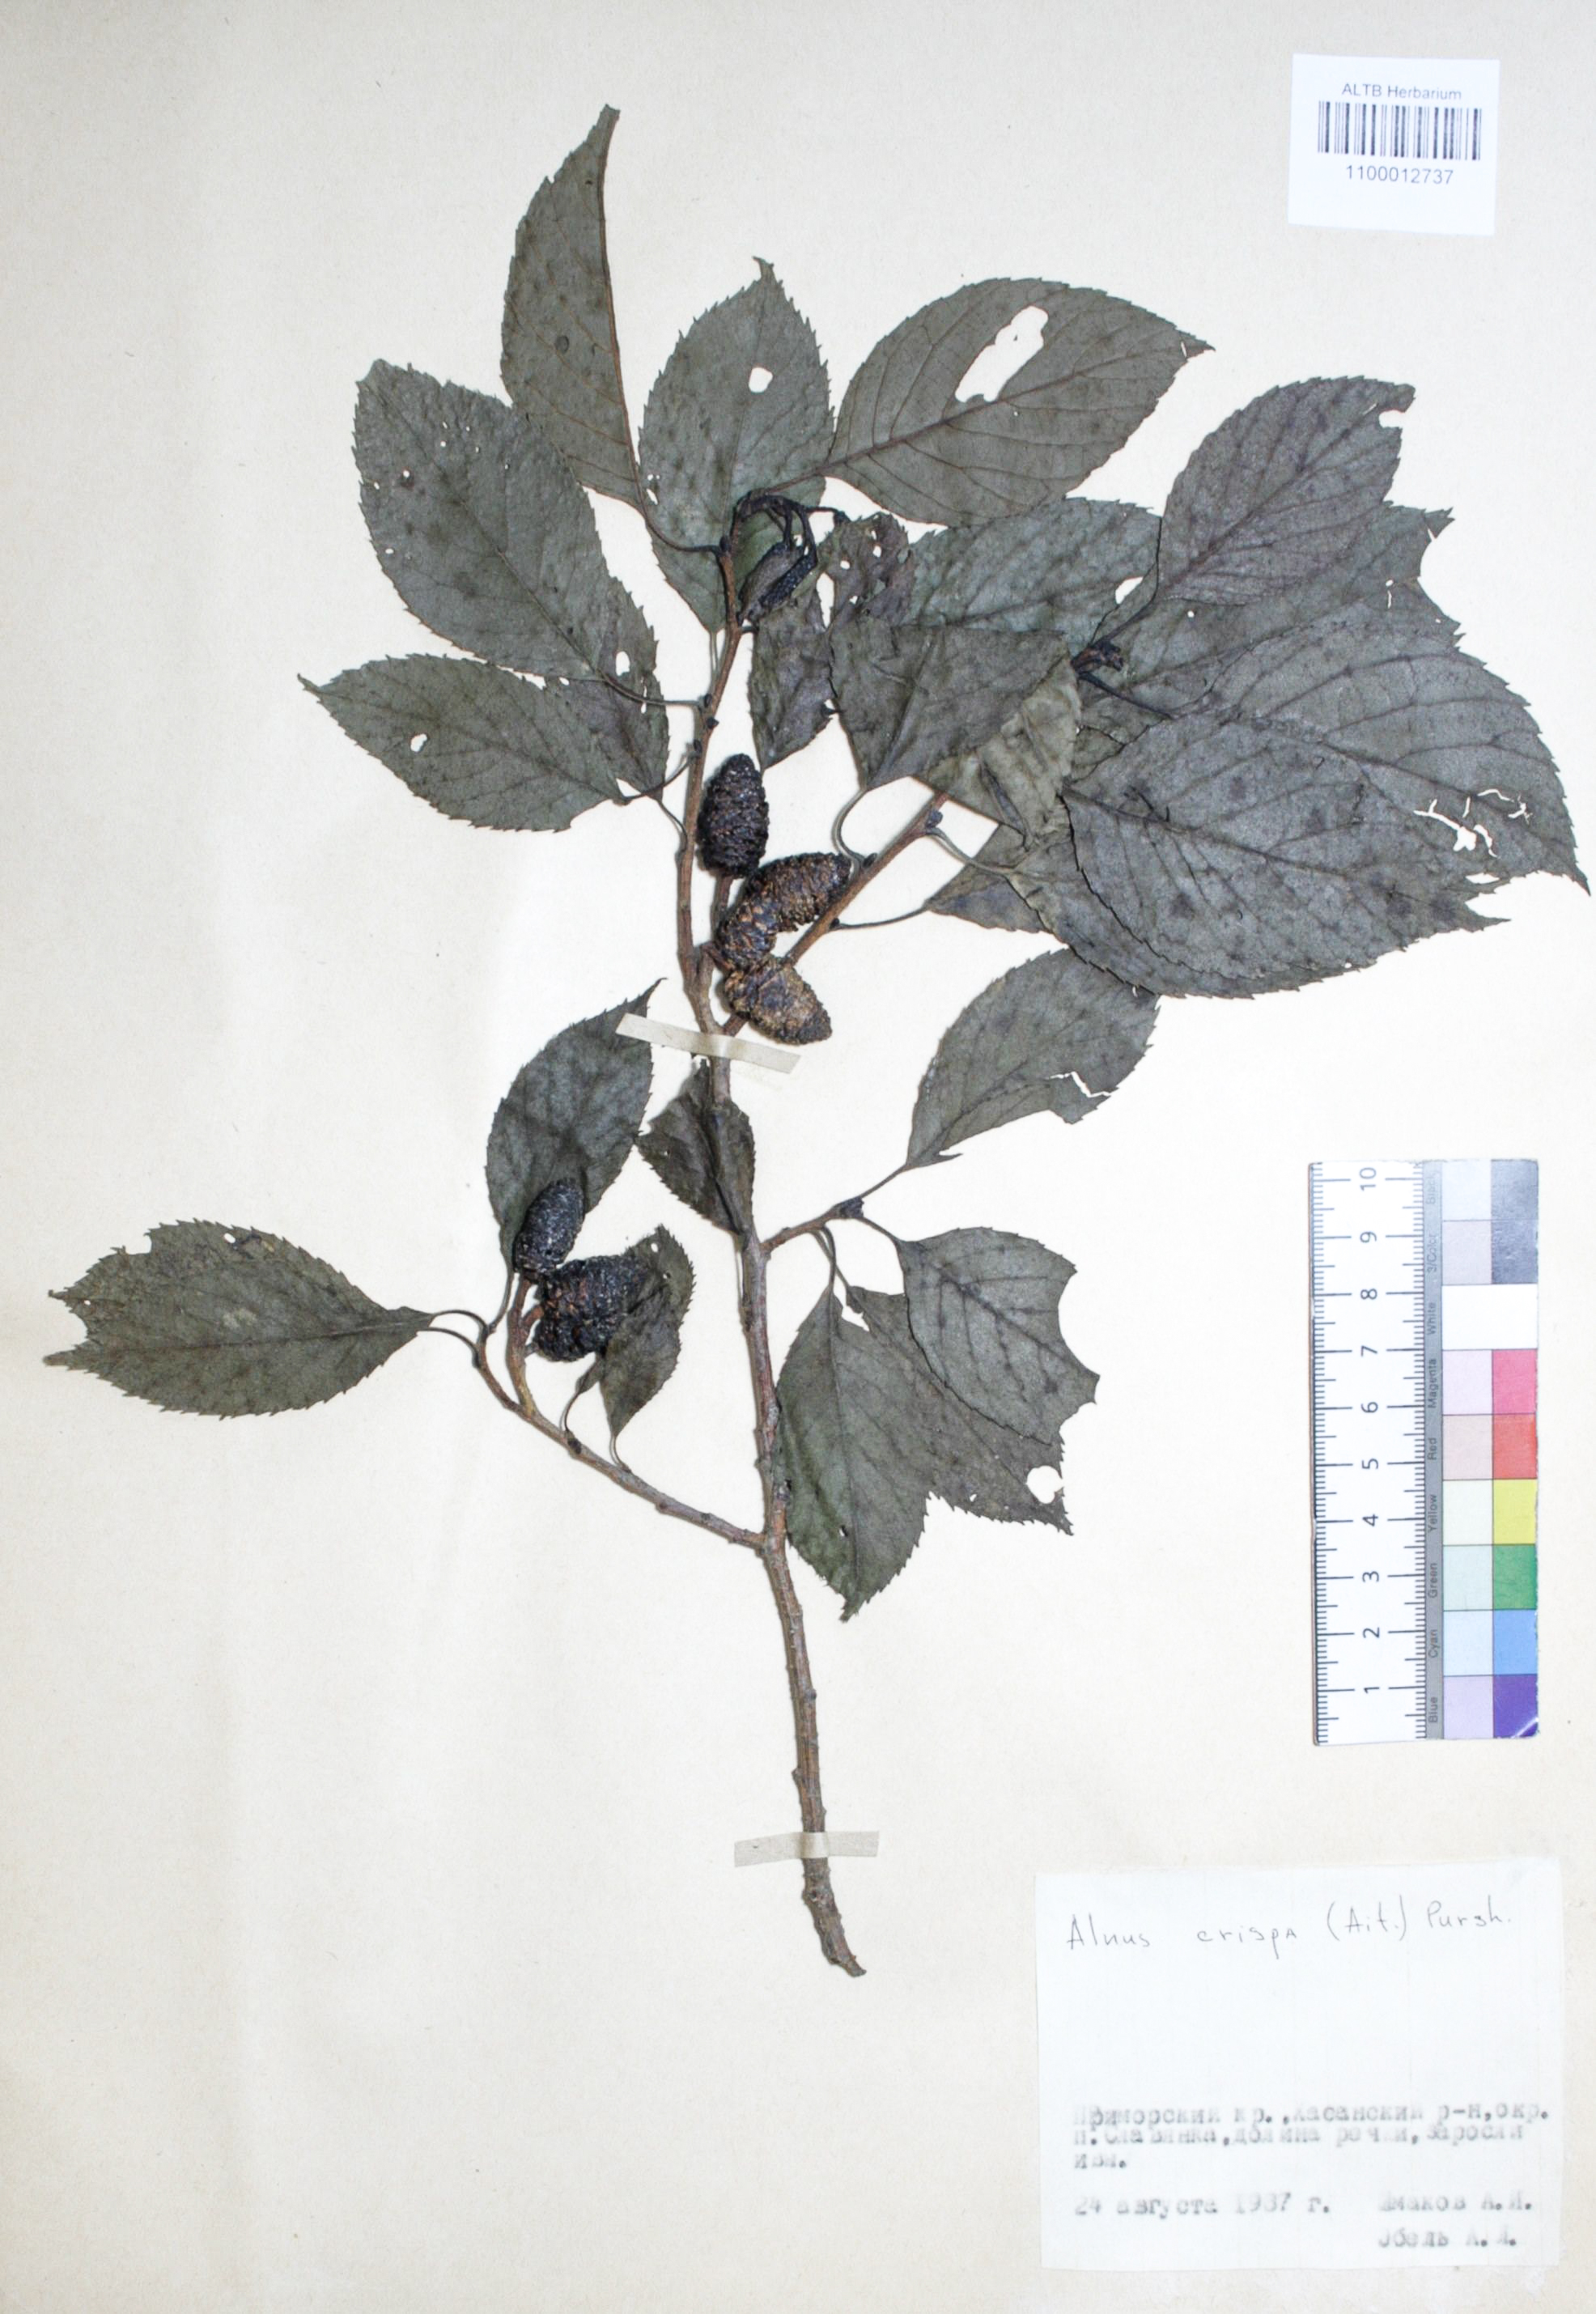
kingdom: Plantae
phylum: Tracheophyta
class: Magnoliopsida
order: Fagales
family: Betulaceae
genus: Alnus
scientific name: Alnus alnobetula
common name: Green alder
